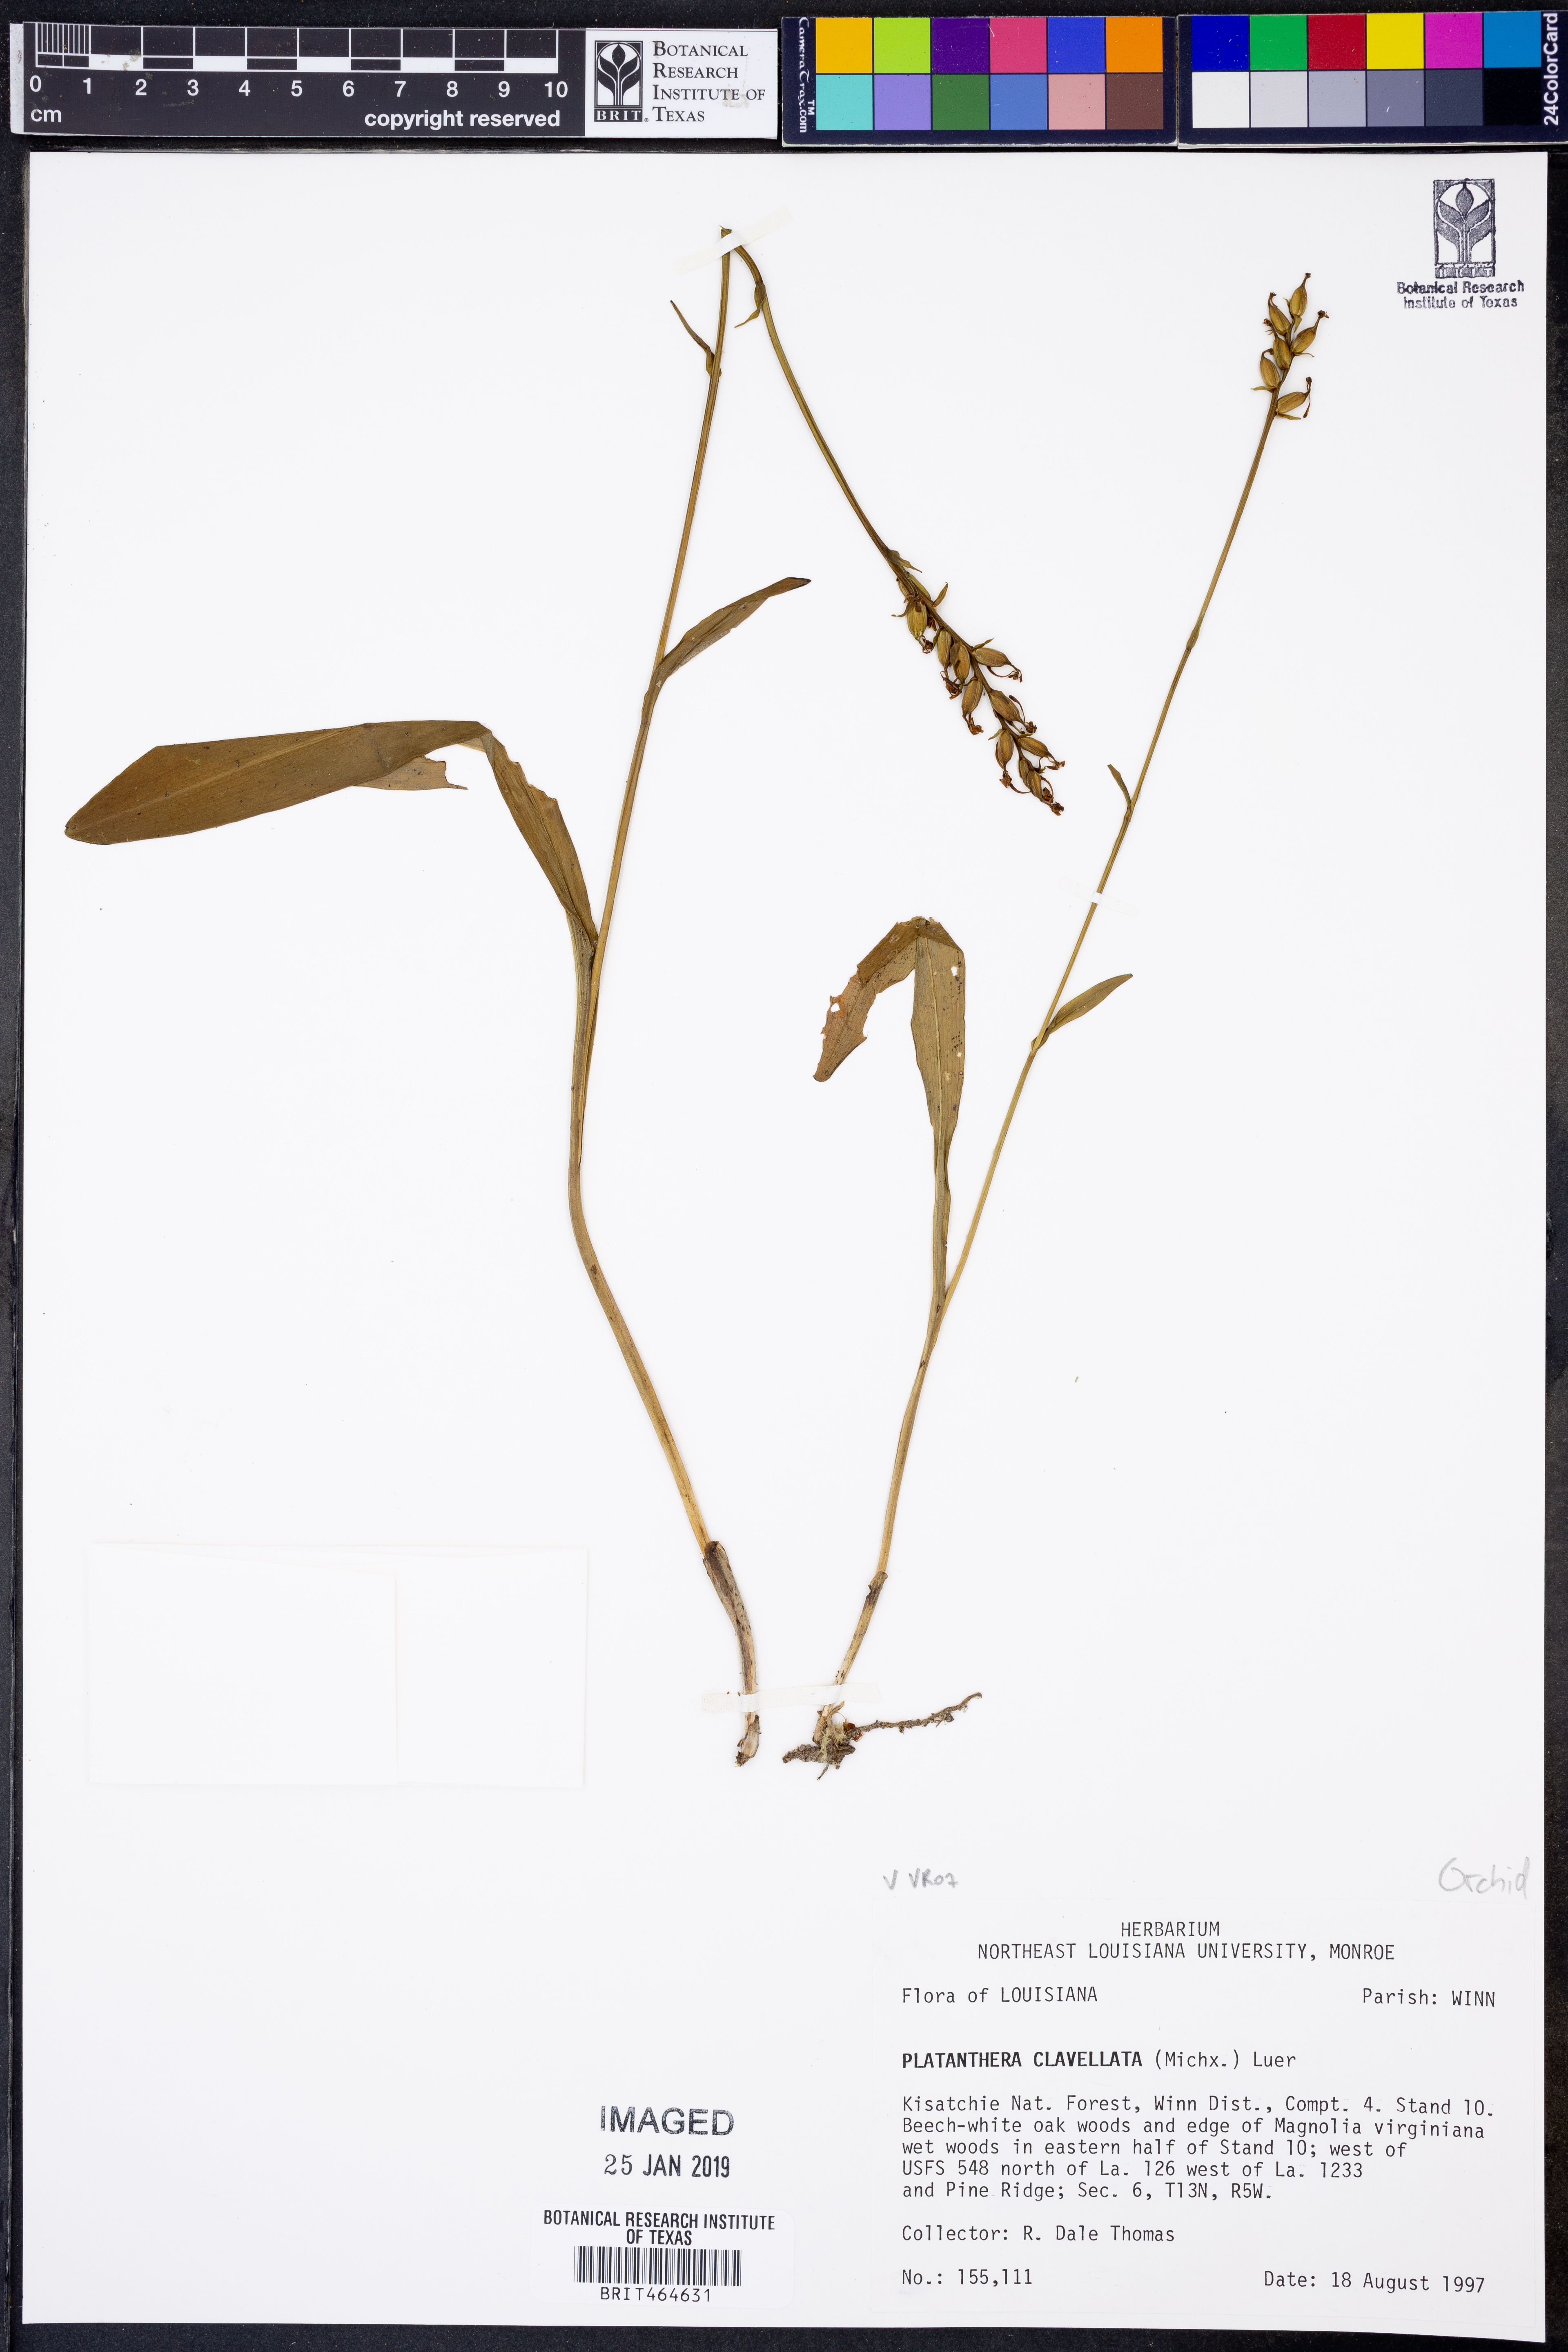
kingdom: Plantae
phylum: Tracheophyta
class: Liliopsida
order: Asparagales
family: Orchidaceae
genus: Platanthera
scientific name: Platanthera clavellata
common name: Club-spur orchid
